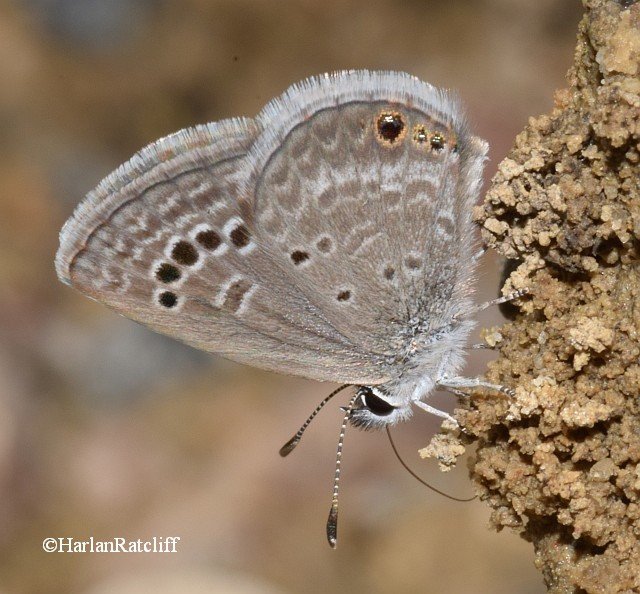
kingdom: Animalia
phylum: Arthropoda
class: Insecta
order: Lepidoptera
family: Lycaenidae
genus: Echinargus
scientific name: Echinargus isola
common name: Reakirt's Blue
